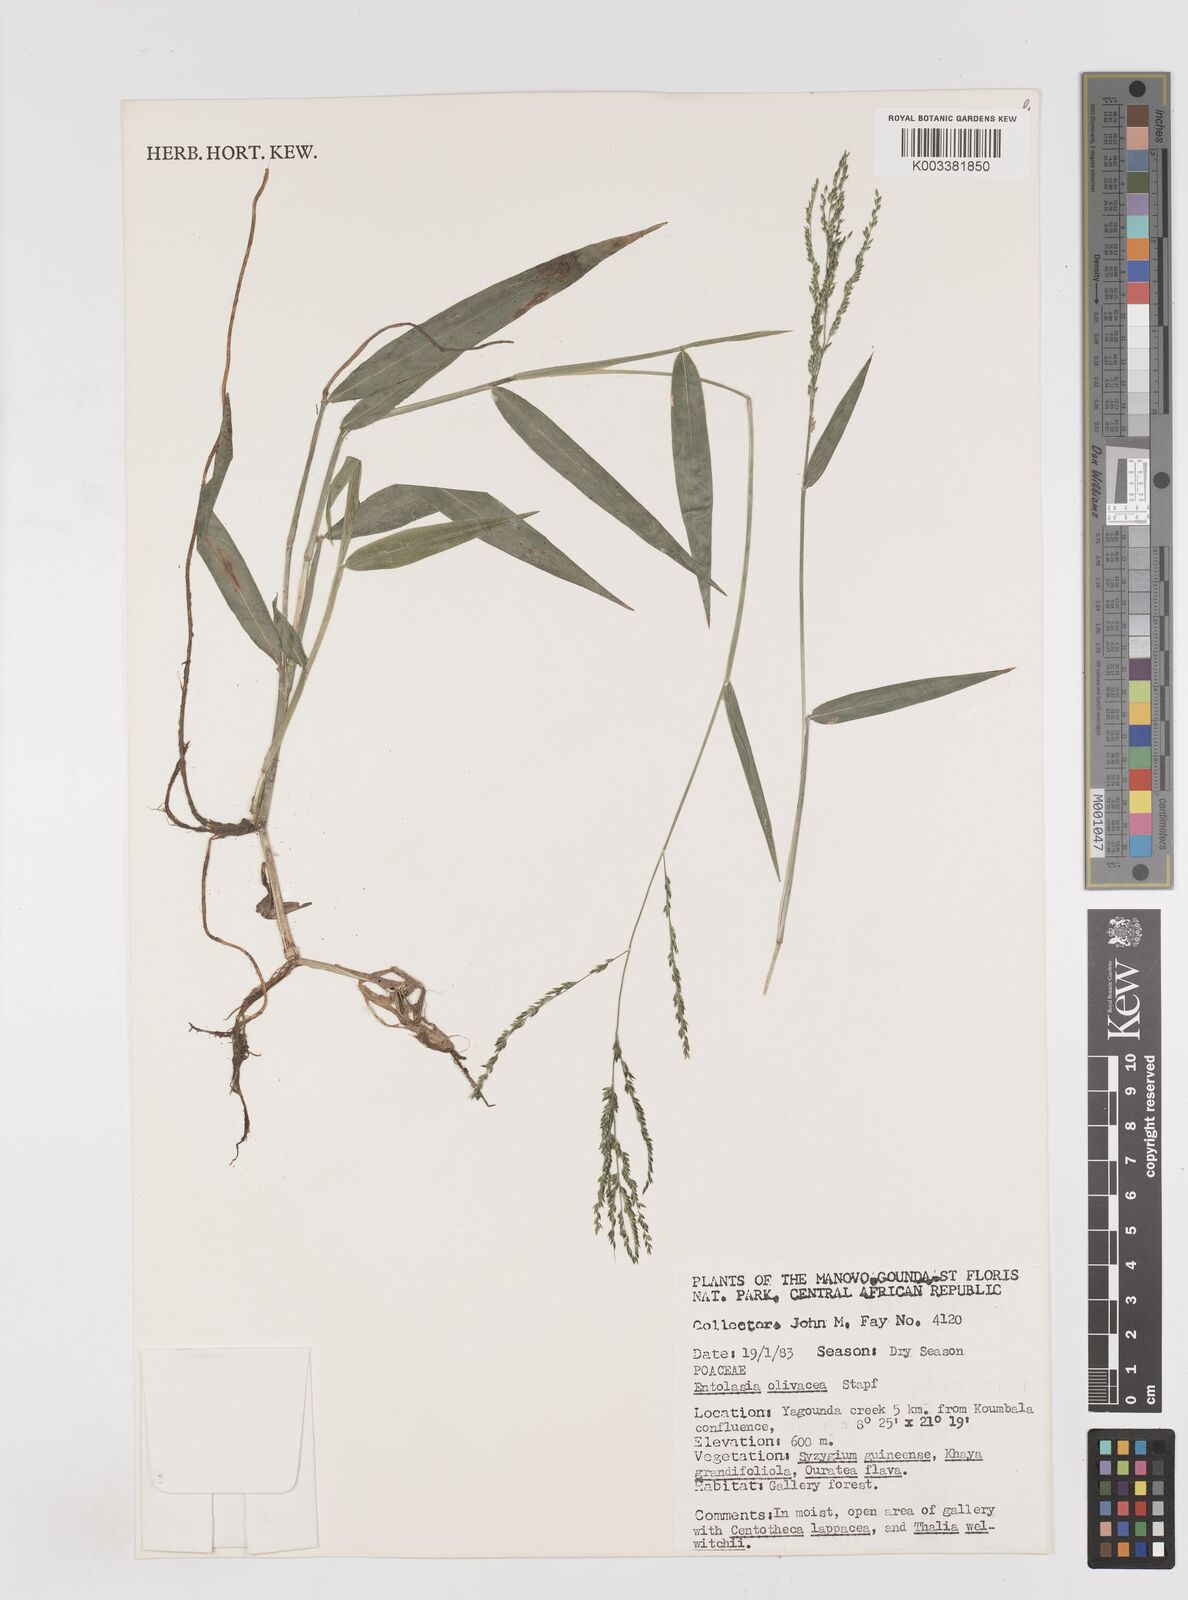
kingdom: Plantae
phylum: Tracheophyta
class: Liliopsida
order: Poales
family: Poaceae
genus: Entolasia
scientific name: Entolasia olivacea
